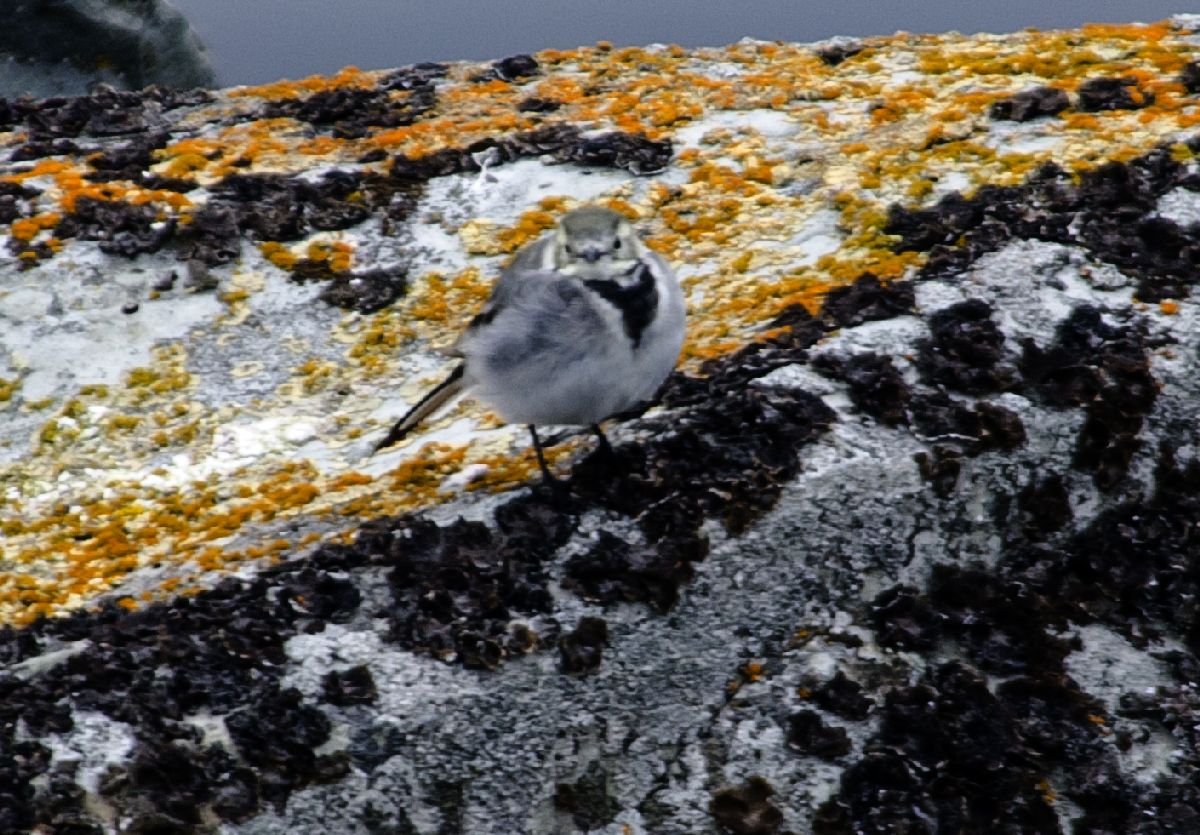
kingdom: Animalia
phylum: Chordata
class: Aves
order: Passeriformes
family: Motacillidae
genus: Motacilla
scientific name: Motacilla alba
